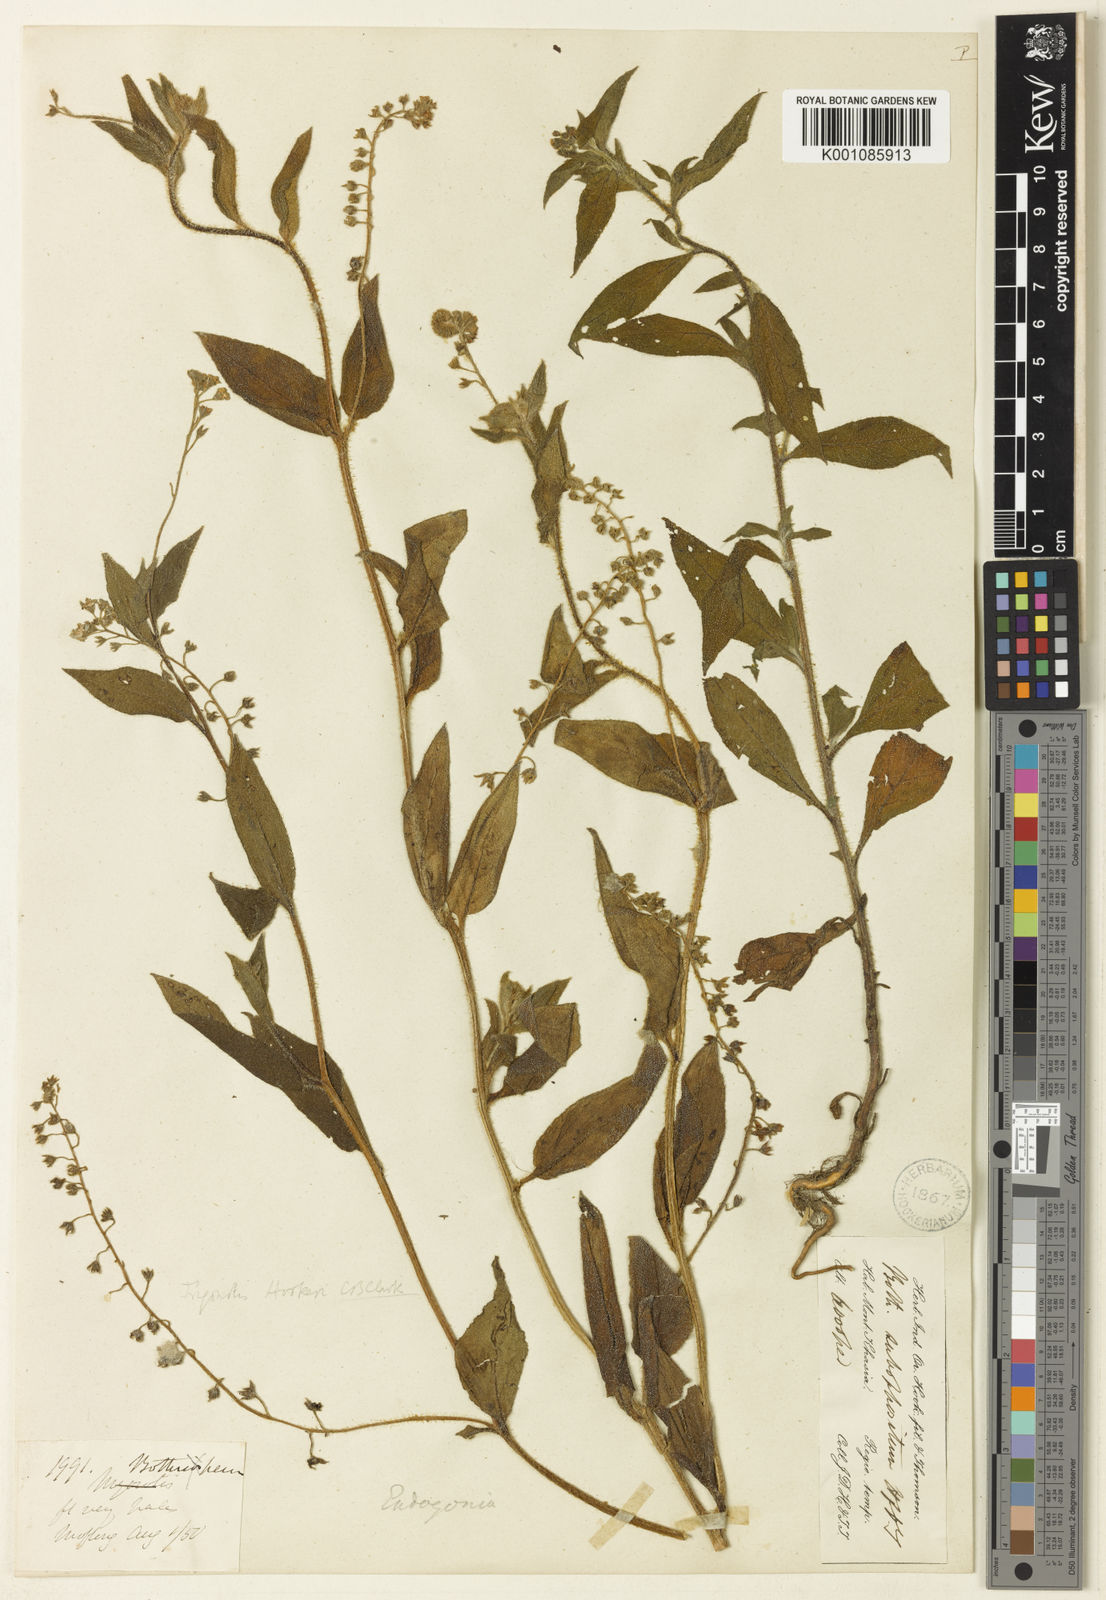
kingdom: Plantae
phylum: Tracheophyta
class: Magnoliopsida
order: Boraginales
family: Boraginaceae
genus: Trigonotis
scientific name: Trigonotis hookeri
